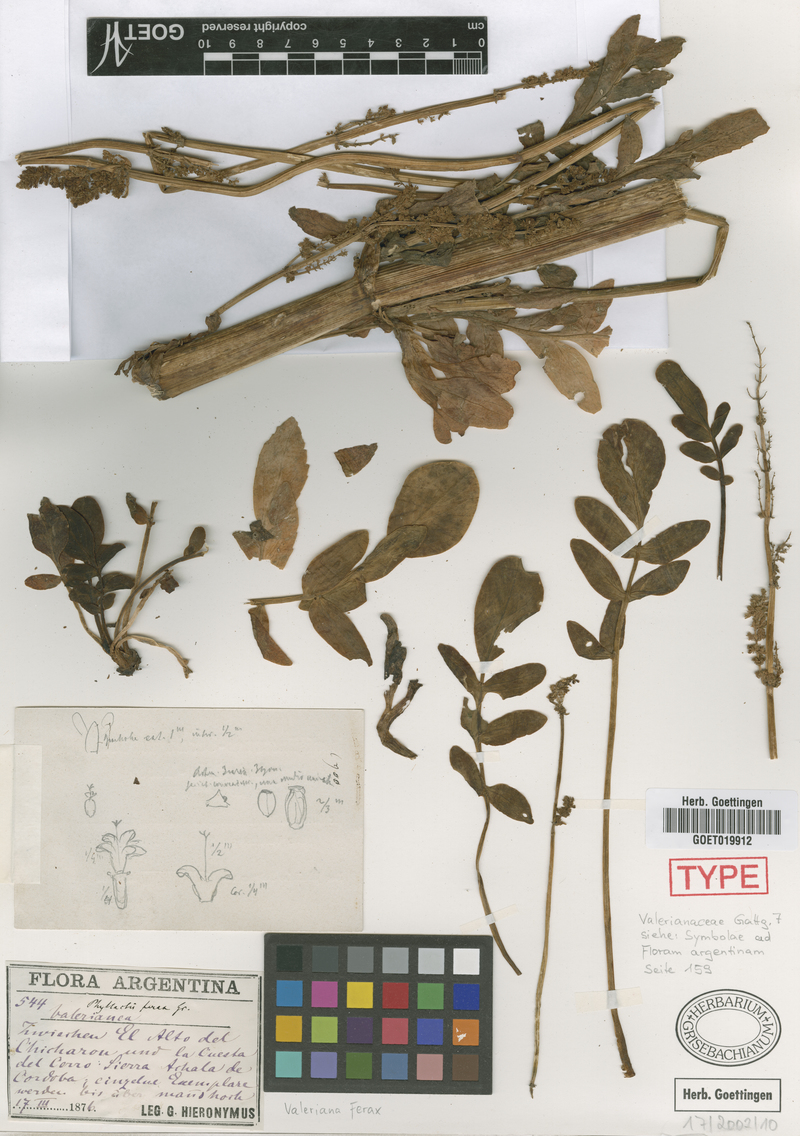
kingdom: Plantae
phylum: Tracheophyta
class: Magnoliopsida
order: Dipsacales
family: Caprifoliaceae
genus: Valeriana
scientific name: Valeriana ferax
